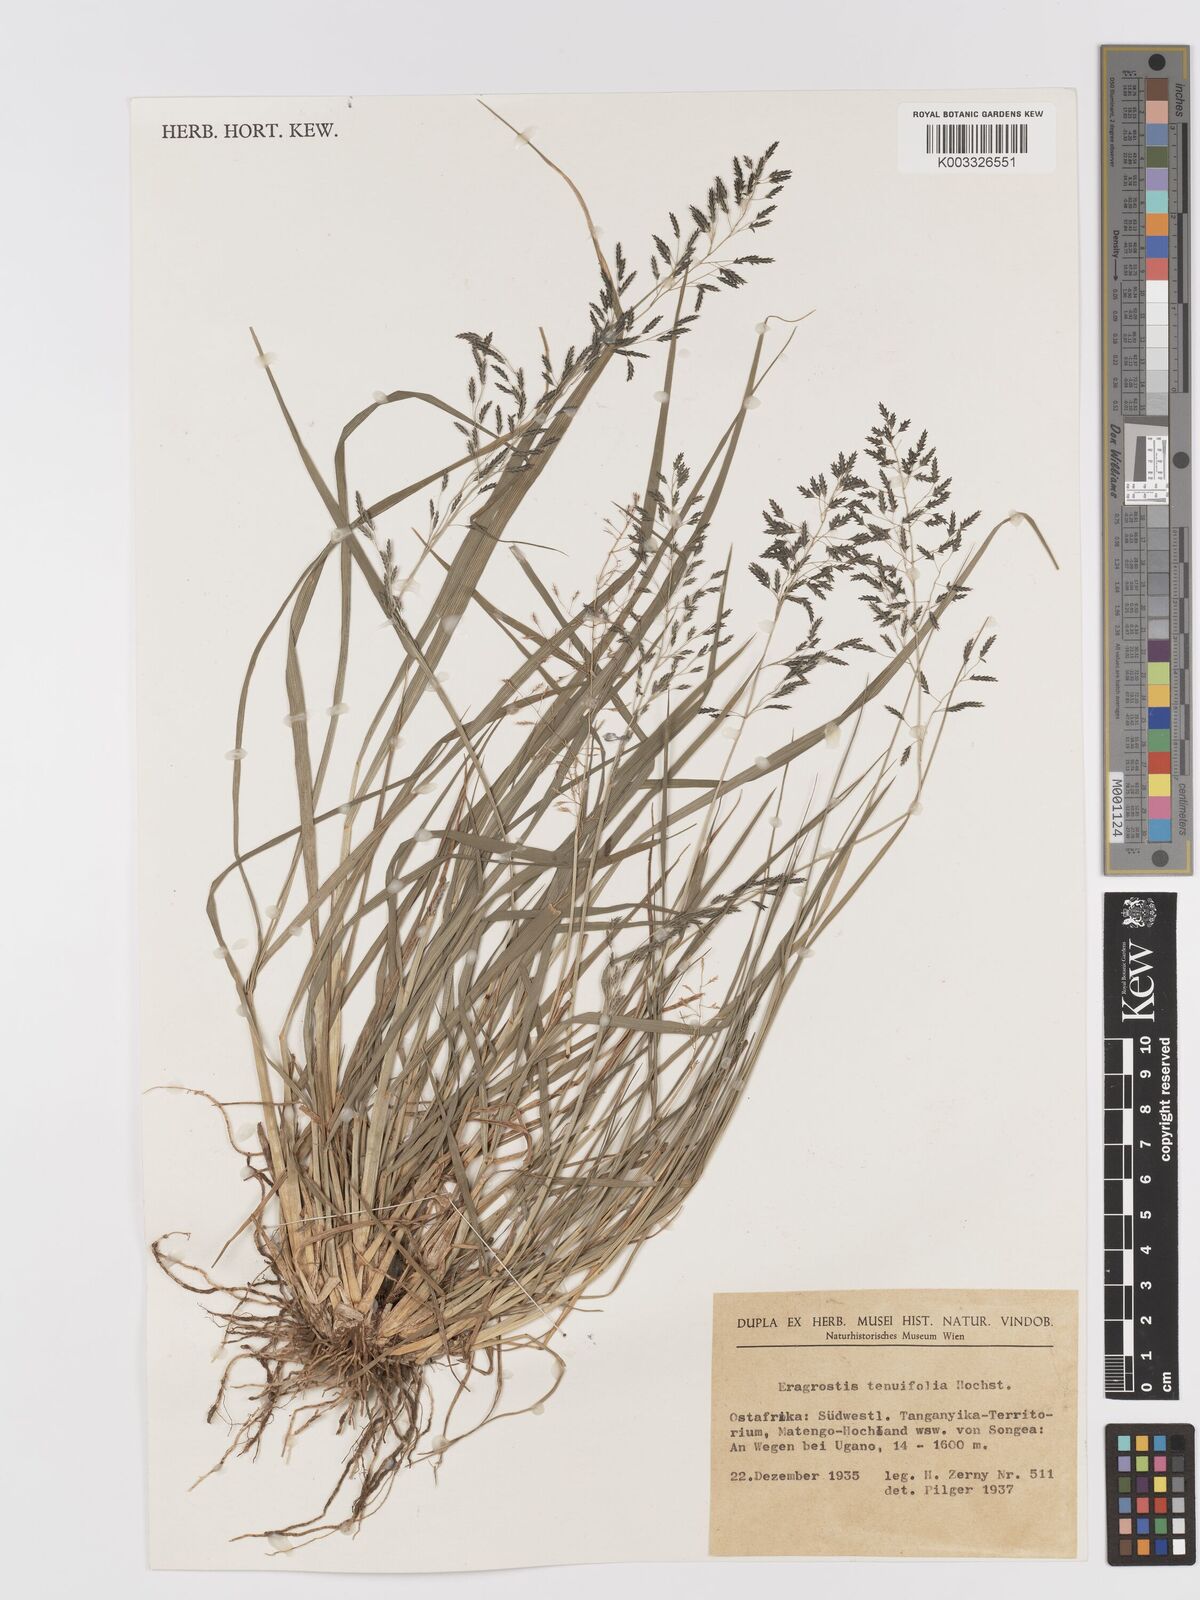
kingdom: Plantae
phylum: Tracheophyta
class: Liliopsida
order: Poales
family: Poaceae
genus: Eragrostis
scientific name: Eragrostis tenuifolia
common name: Elastic grass
